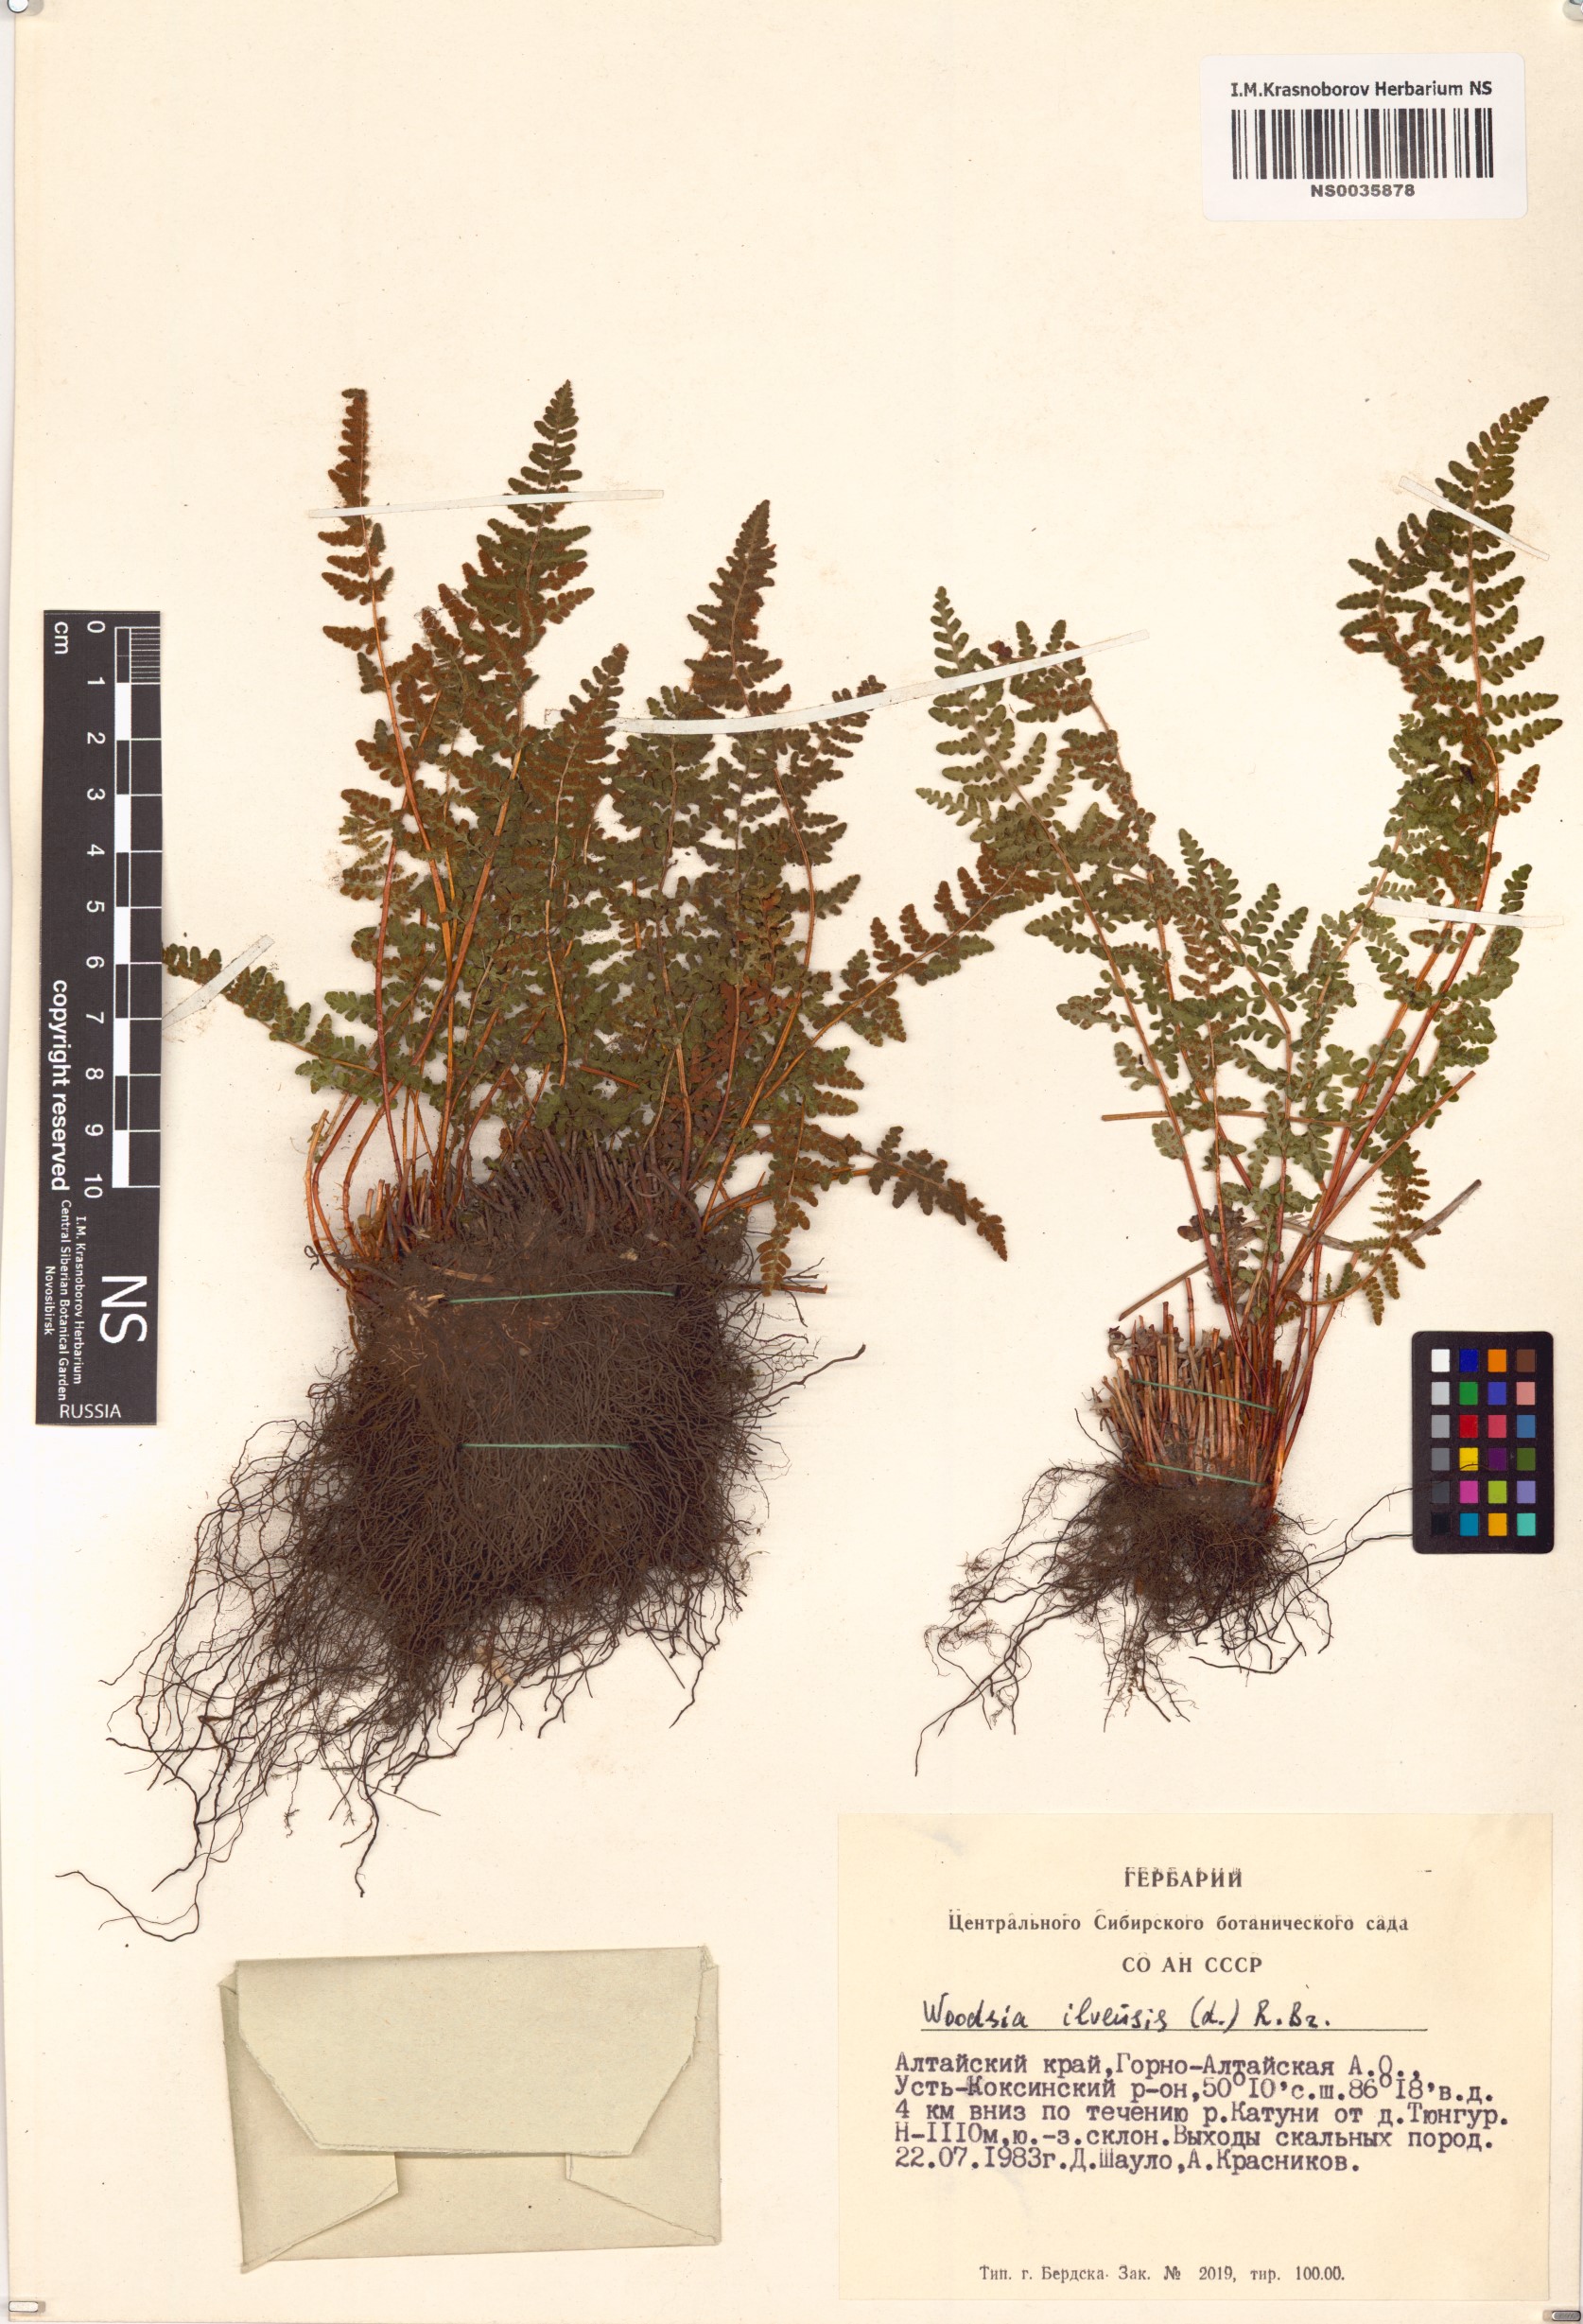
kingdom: Plantae
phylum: Tracheophyta
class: Polypodiopsida
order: Polypodiales
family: Woodsiaceae
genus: Woodsia
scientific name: Woodsia ilvensis
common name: Fragrant woodsia
